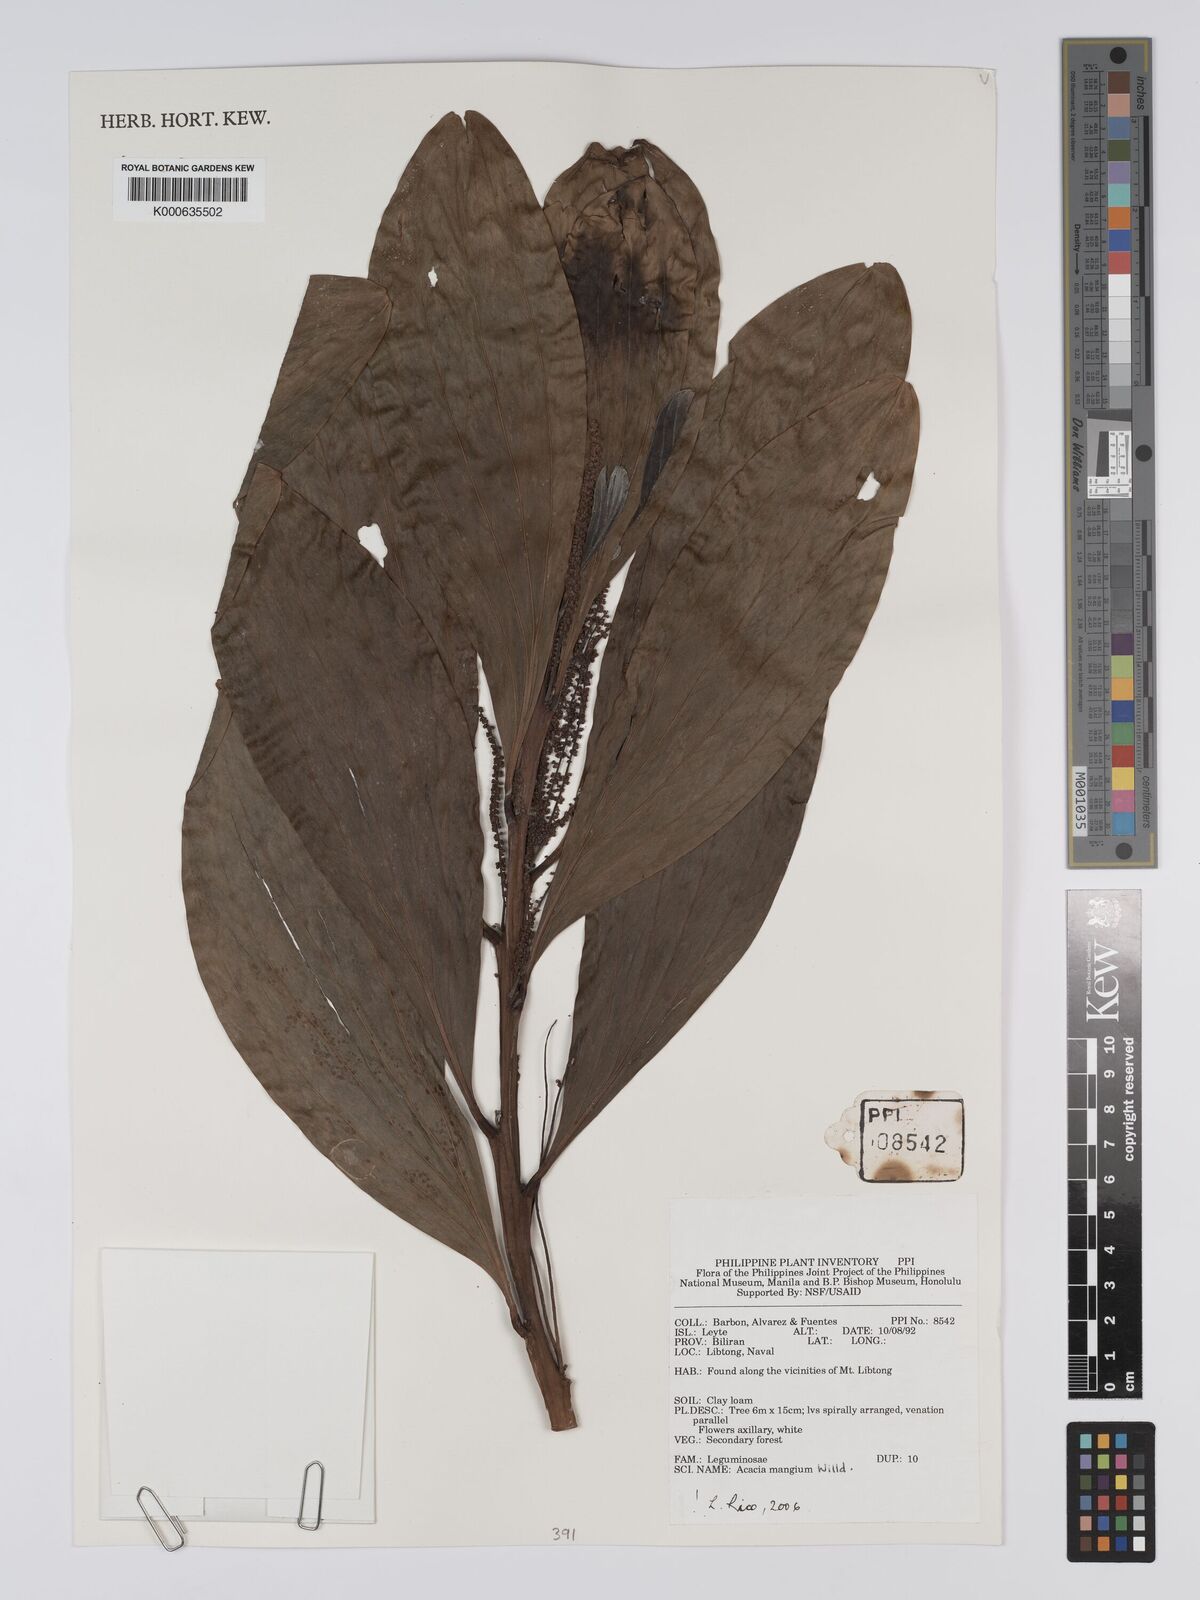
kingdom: Plantae
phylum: Tracheophyta
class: Magnoliopsida
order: Fabales
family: Fabaceae
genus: Acacia
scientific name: Acacia mangium
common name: Black wattle
